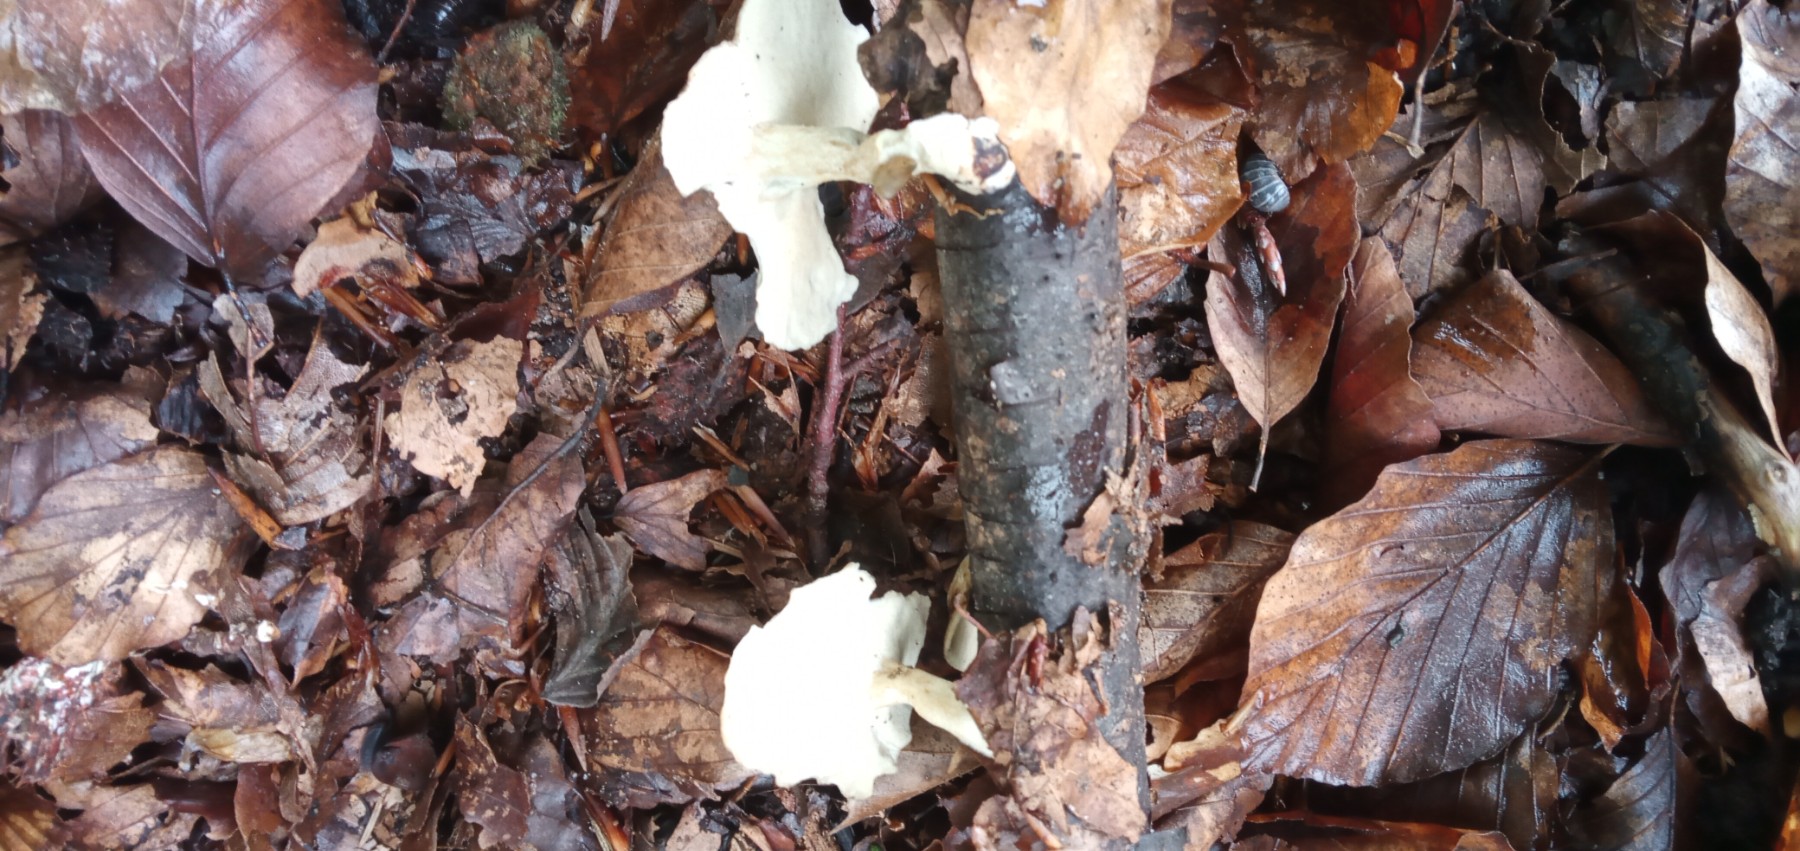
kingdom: Fungi
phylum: Basidiomycota
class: Agaricomycetes
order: Polyporales
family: Polyporaceae
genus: Lentinus
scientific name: Lentinus substrictus
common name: forårs-stilkporesvamp
